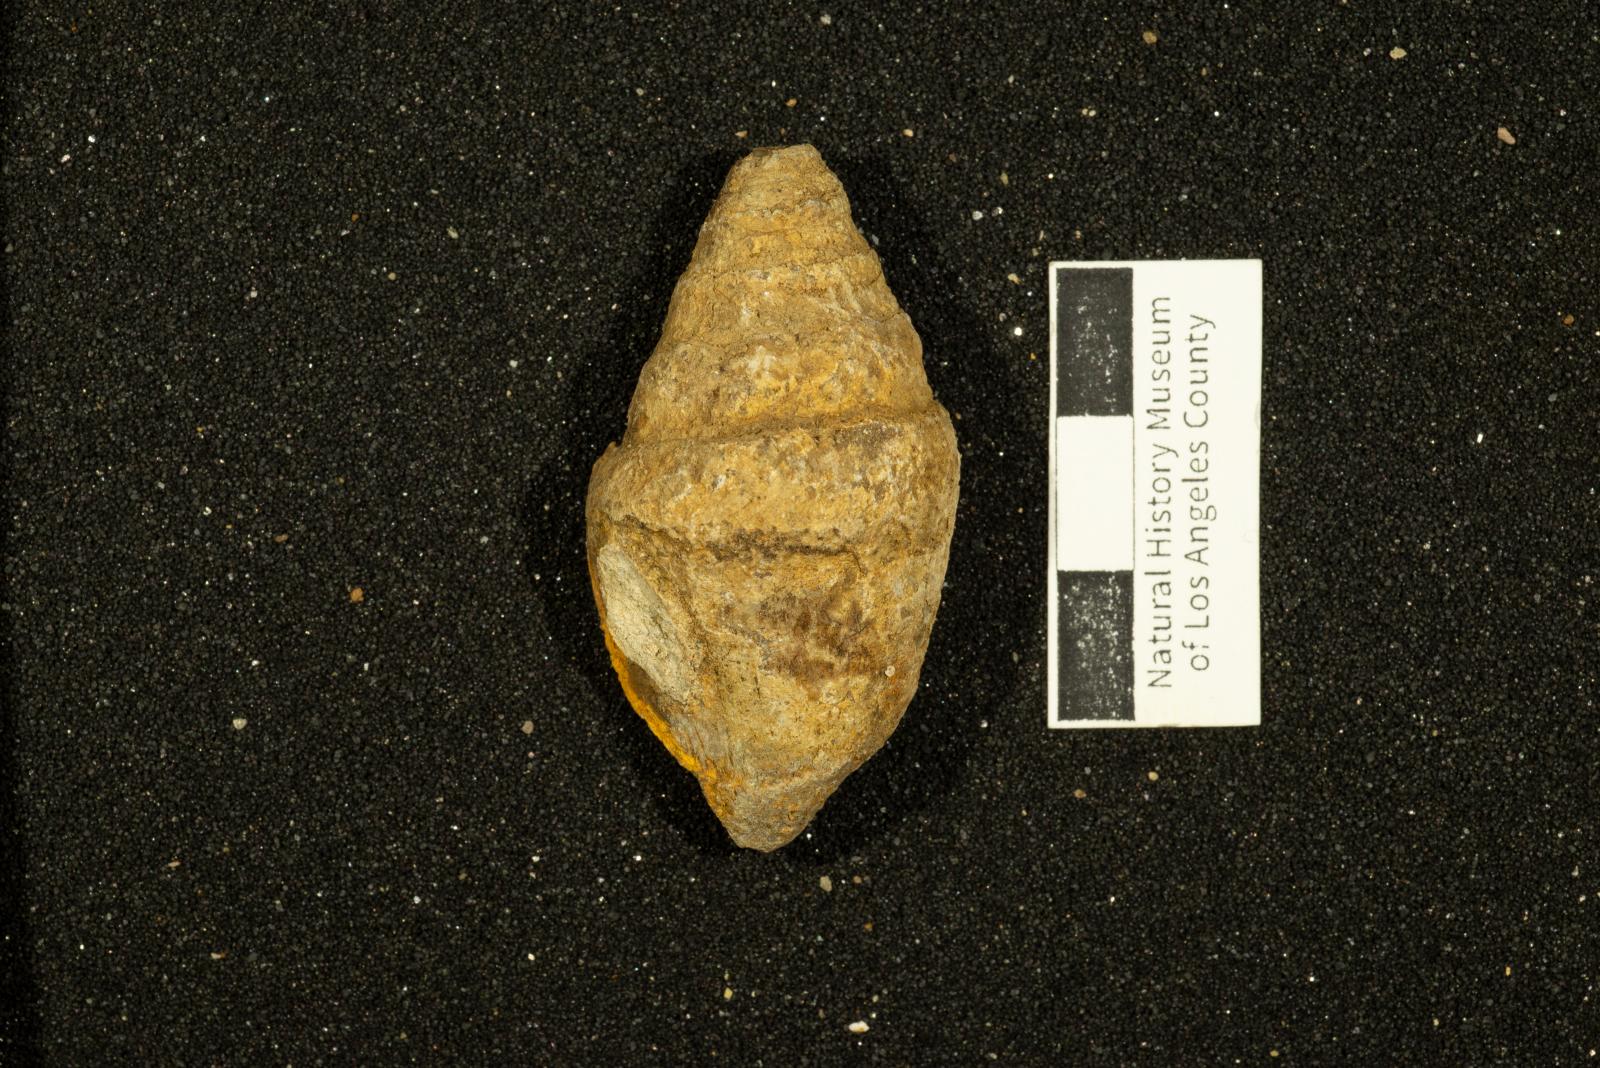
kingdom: Animalia
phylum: Mollusca
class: Gastropoda
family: Acteonellidae
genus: Acteonella
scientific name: Acteonella
